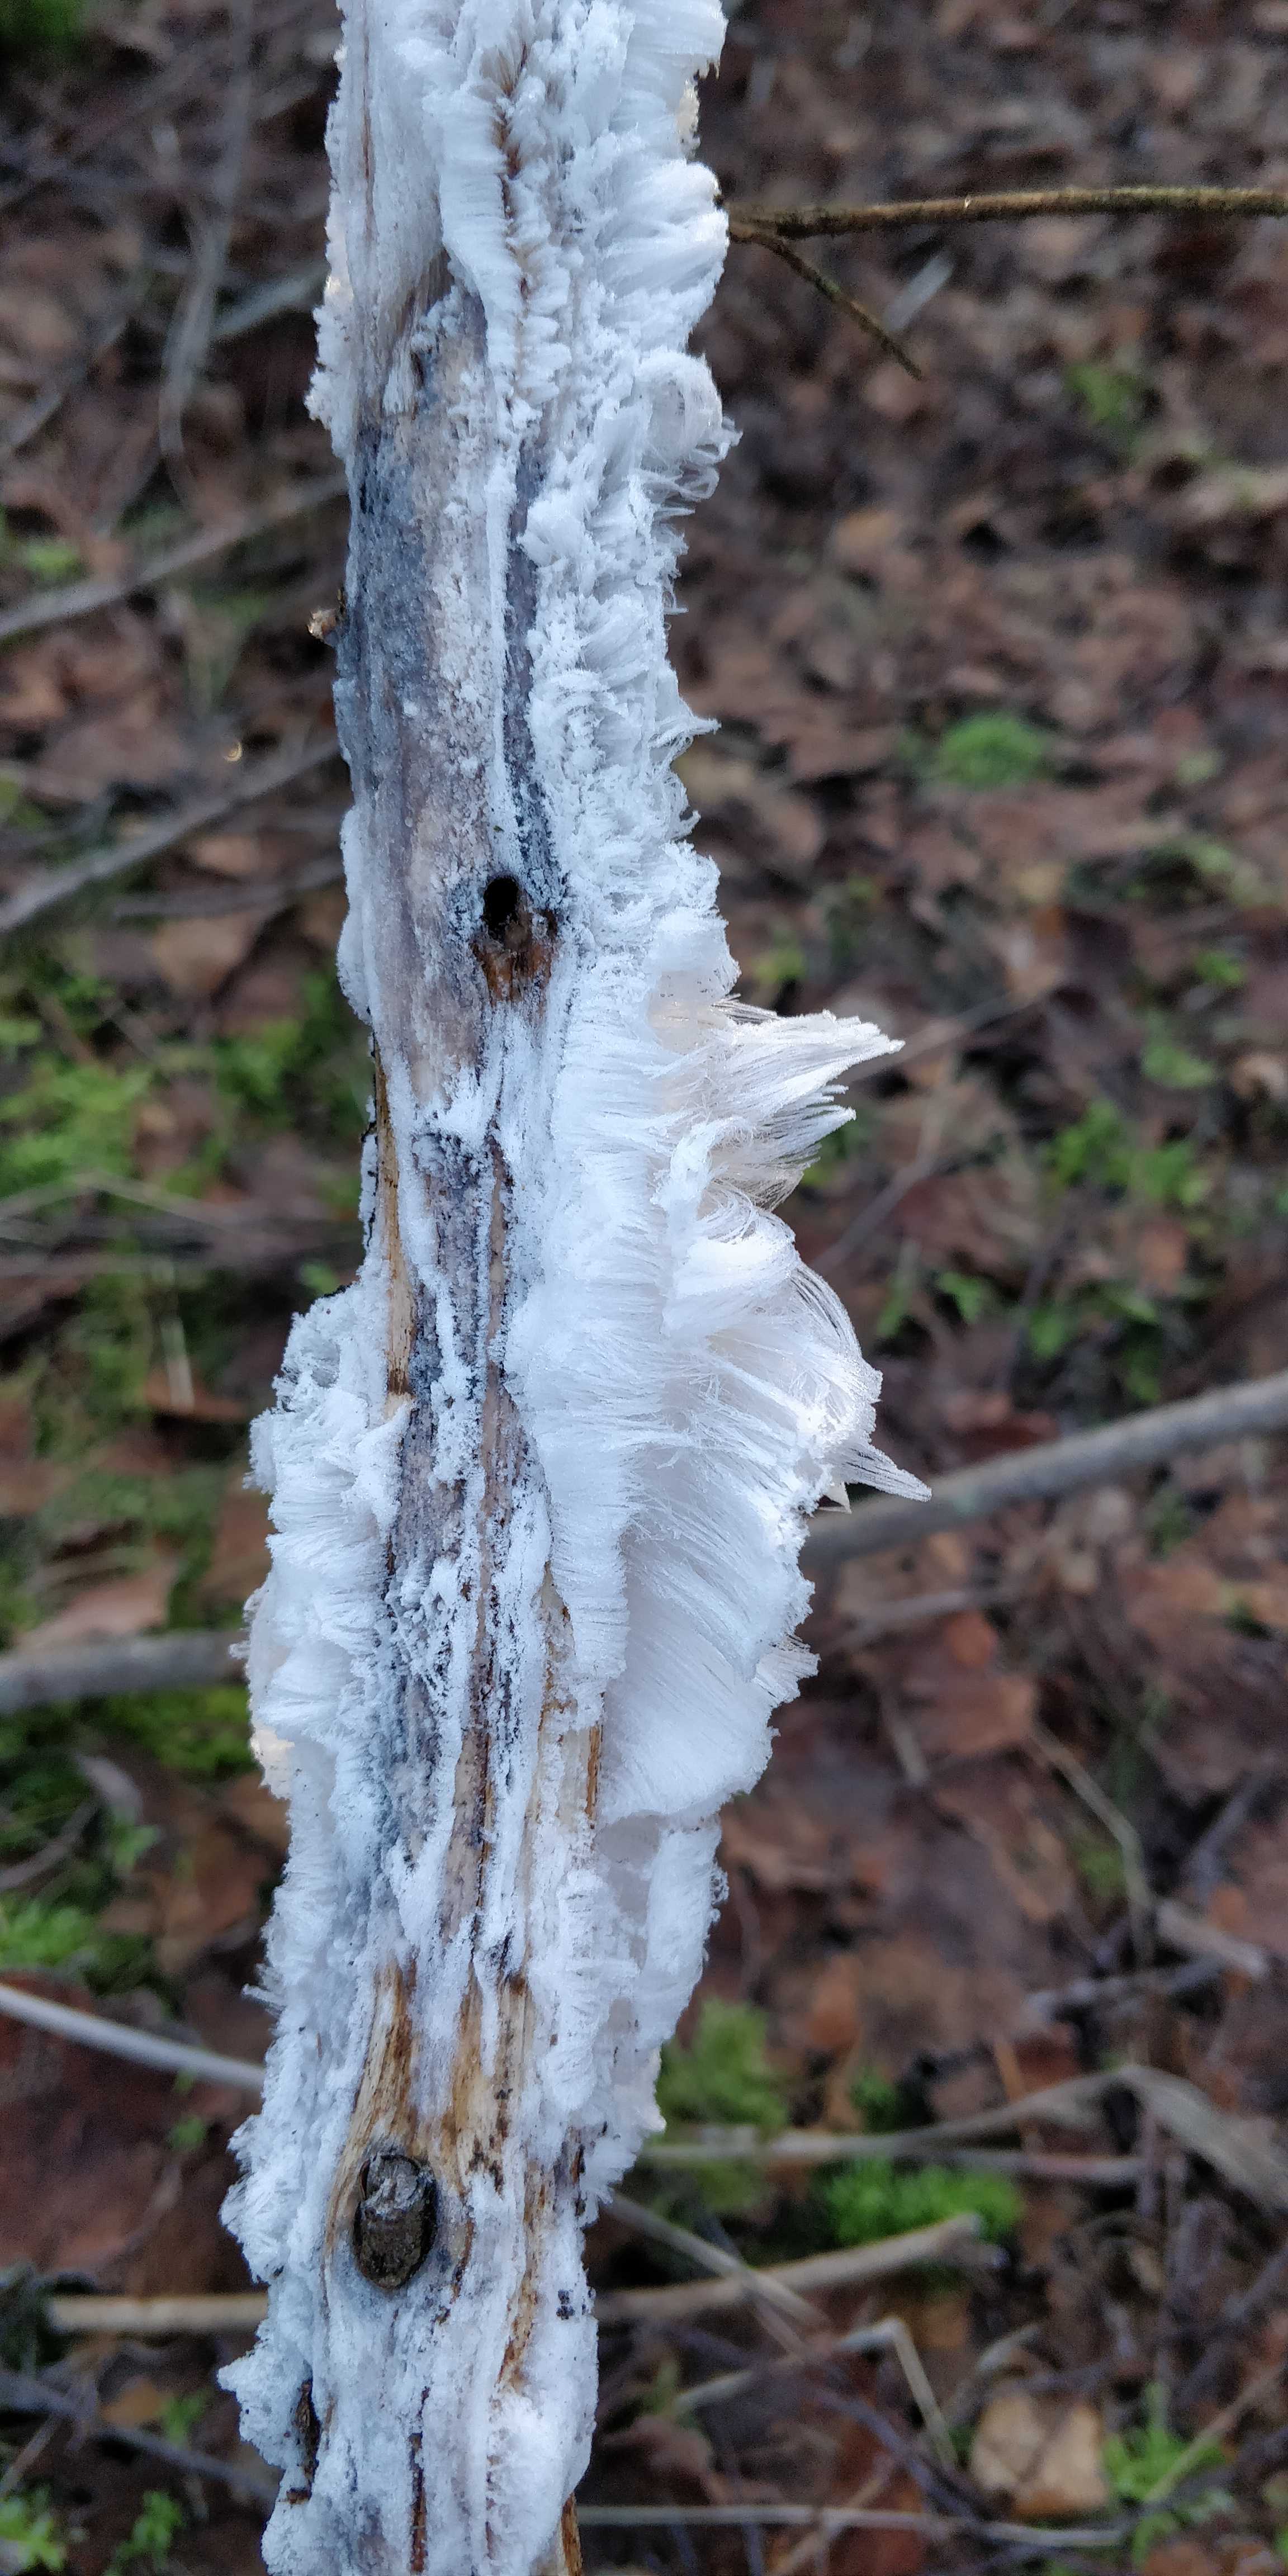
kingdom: Fungi
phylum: Basidiomycota
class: Tremellomycetes
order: Tremellales
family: Exidiaceae
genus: Exidiopsis
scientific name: Exidiopsis effusa
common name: smuk bævrehinde
